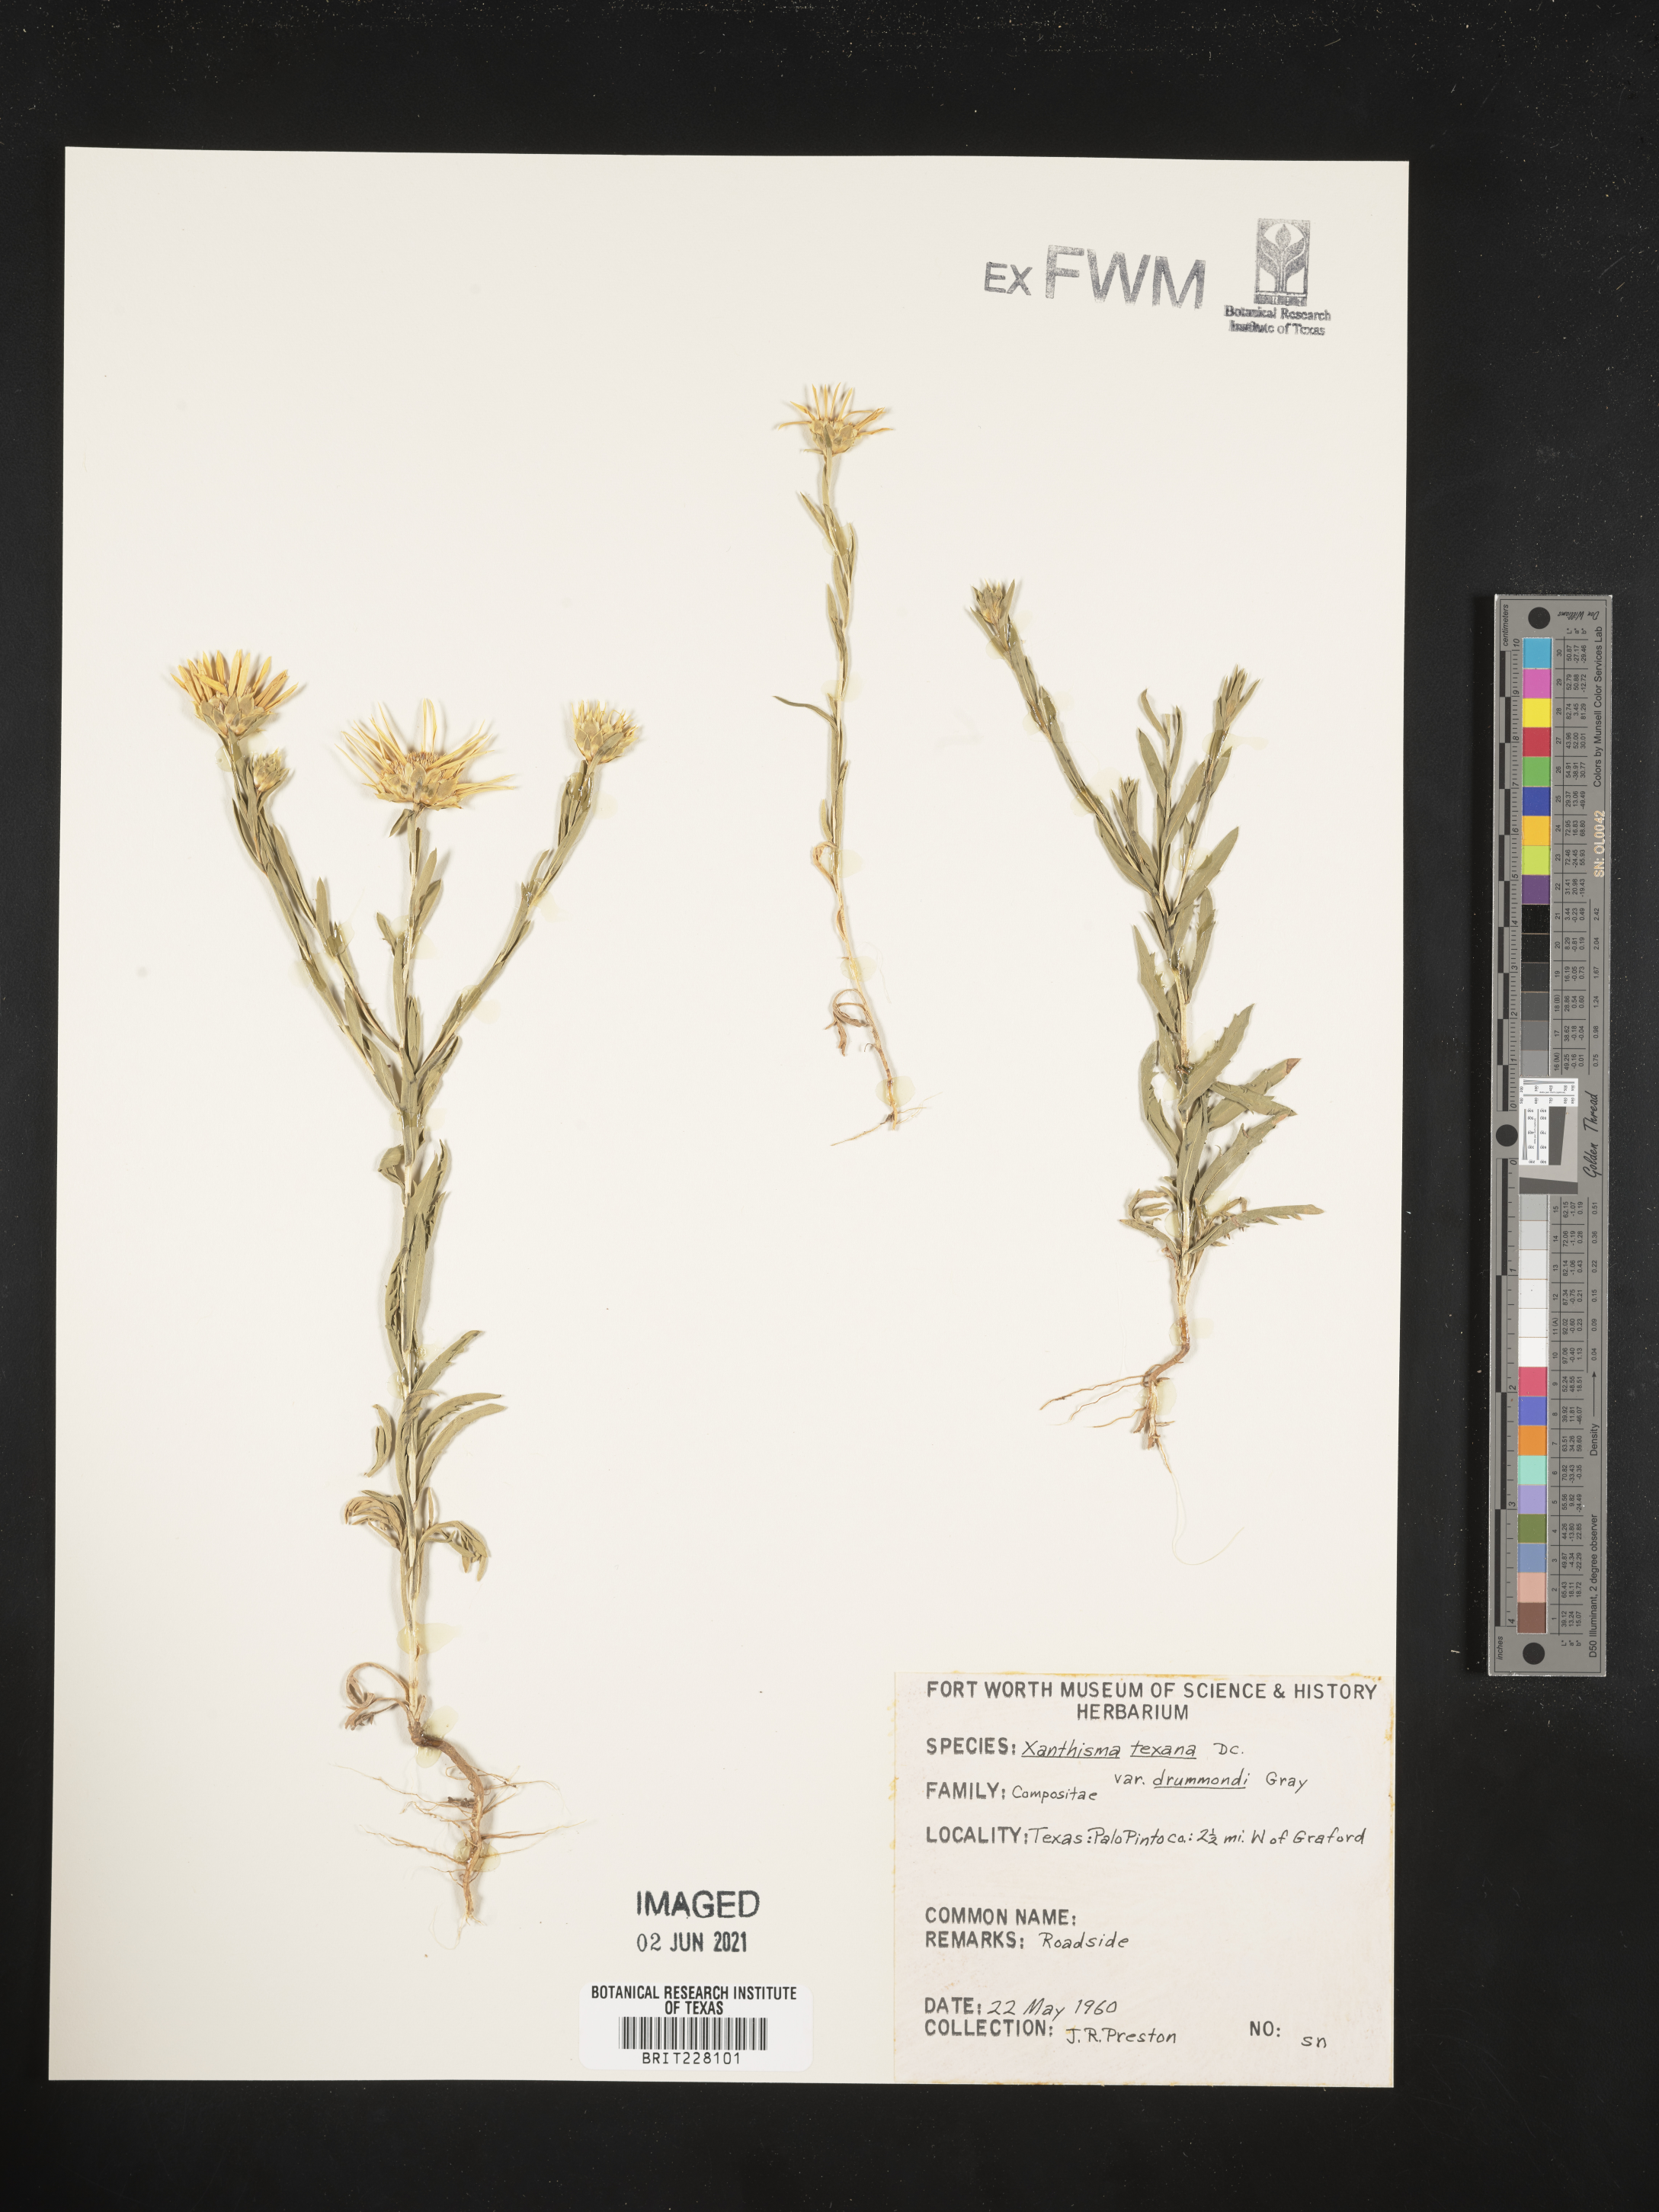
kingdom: Plantae
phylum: Tracheophyta
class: Magnoliopsida
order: Asterales
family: Asteraceae
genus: Xanthisma
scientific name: Xanthisma texanum
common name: Texas sleepy daisy
